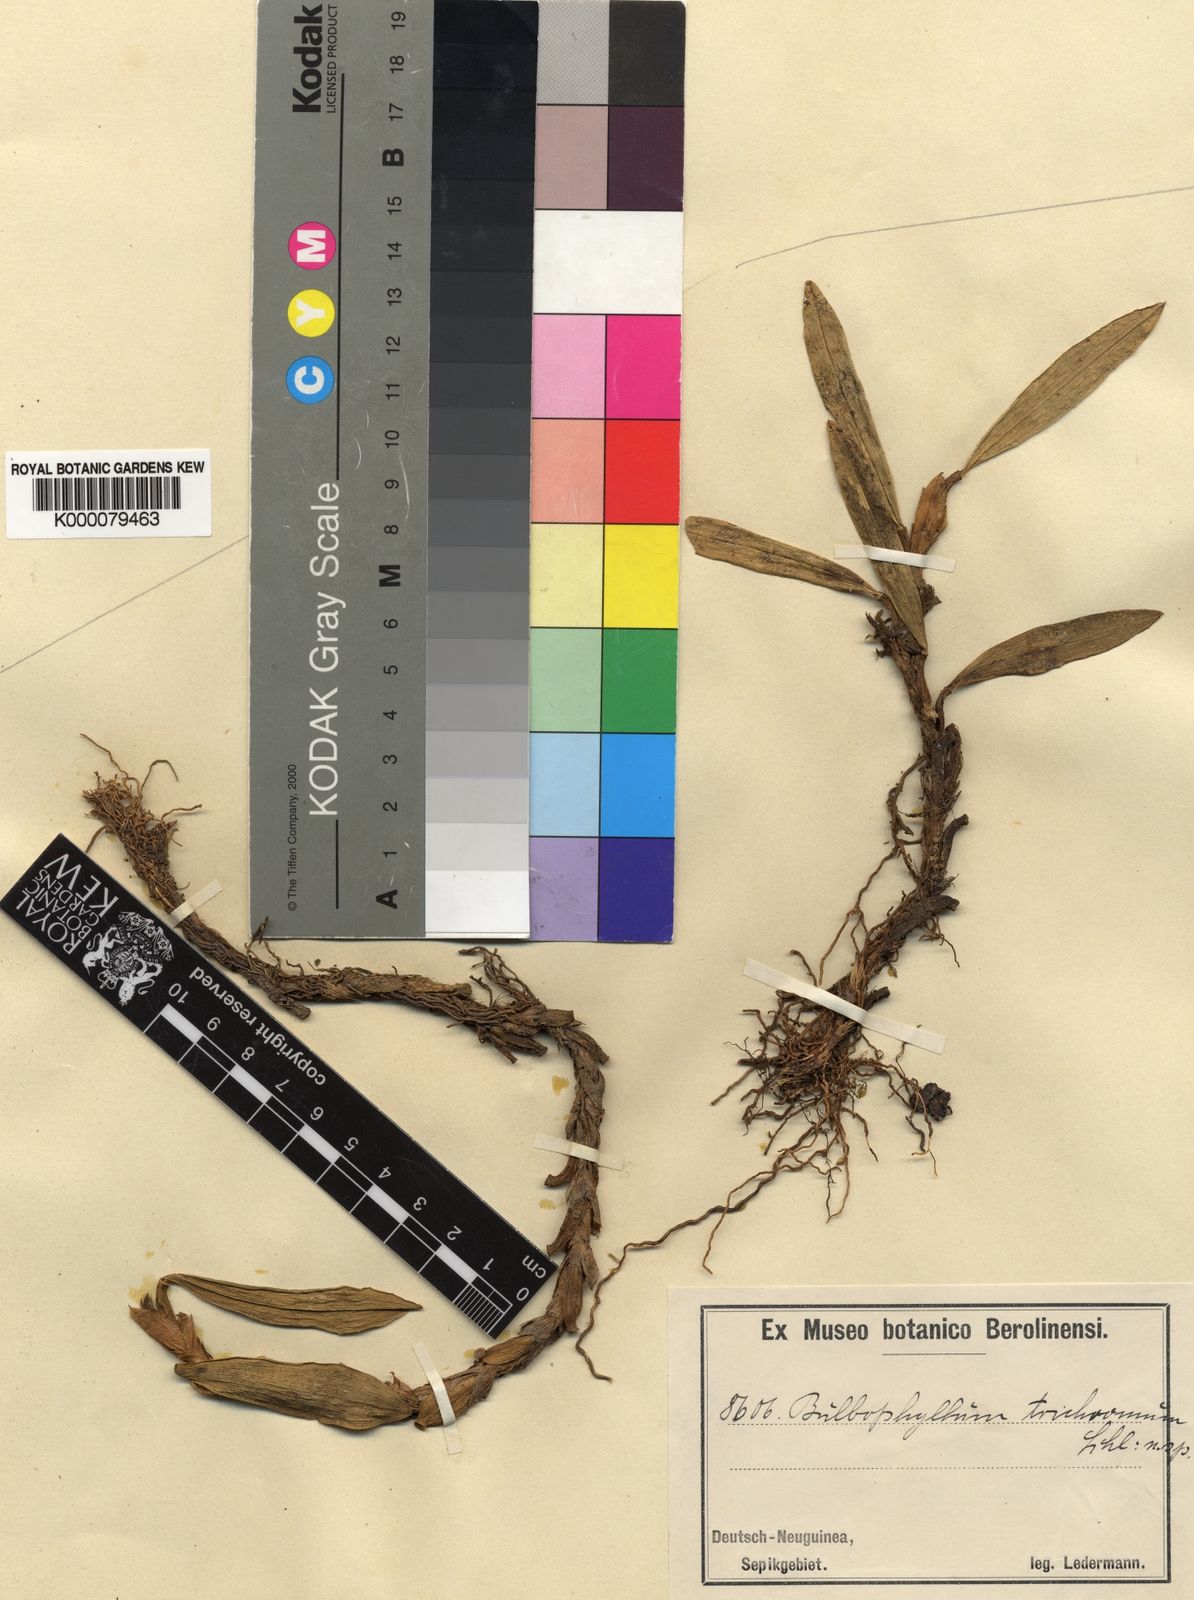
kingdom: Plantae
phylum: Tracheophyta
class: Liliopsida
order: Asparagales
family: Orchidaceae
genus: Bulbophyllum
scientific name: Bulbophyllum trichromum
